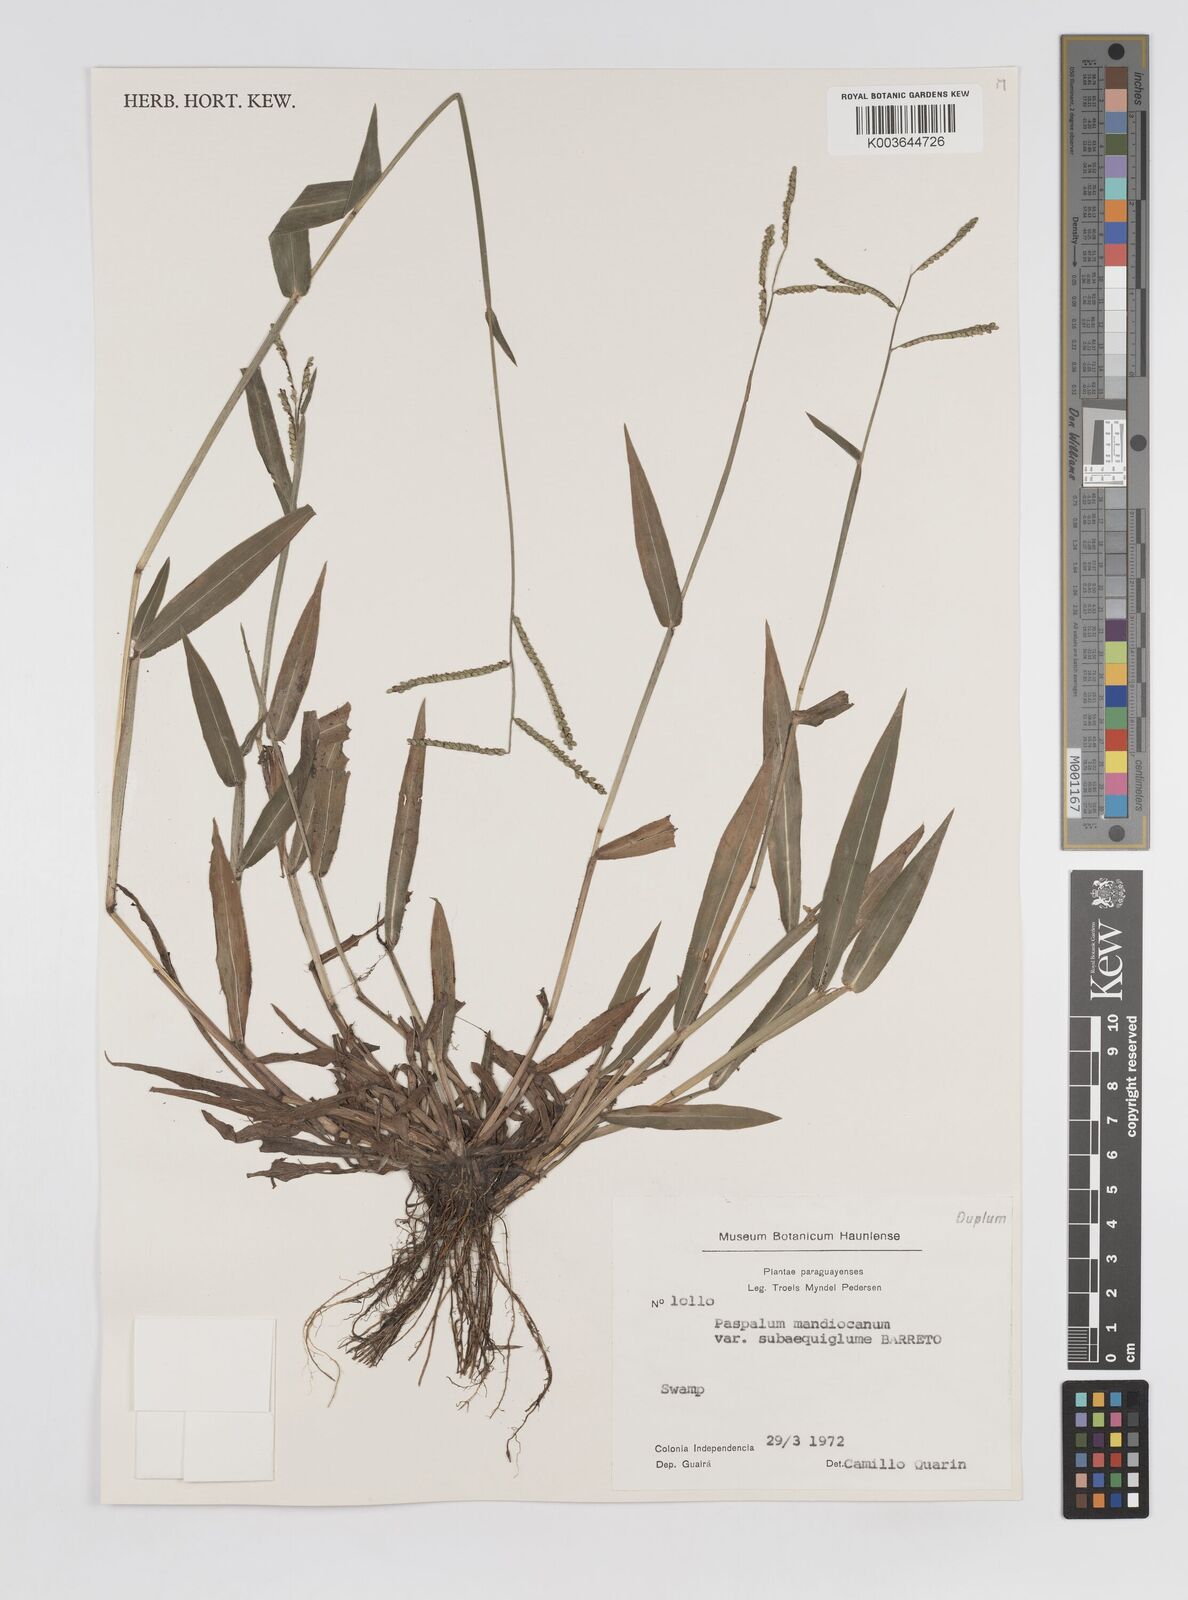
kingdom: Plantae
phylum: Tracheophyta
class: Liliopsida
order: Poales
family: Poaceae
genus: Paspalum
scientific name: Paspalum mandiocanum
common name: Paspalum
